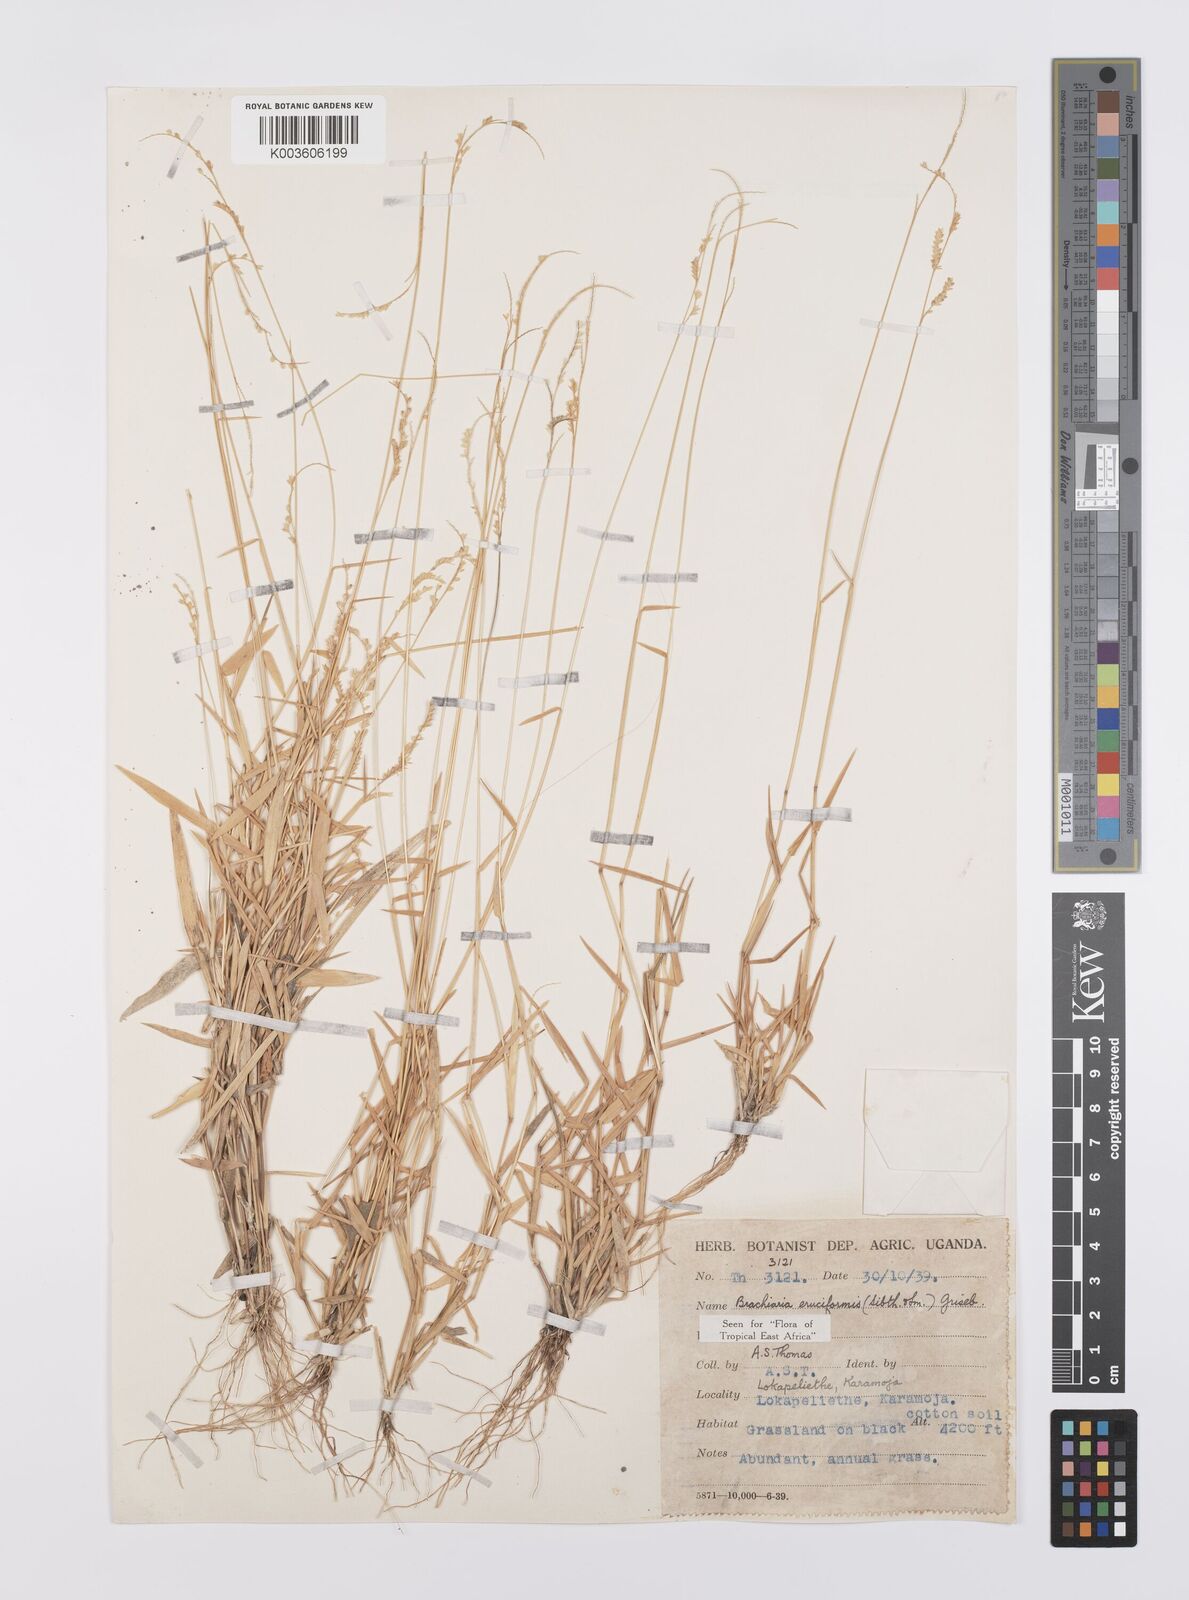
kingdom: Plantae
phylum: Tracheophyta
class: Liliopsida
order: Poales
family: Poaceae
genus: Moorochloa
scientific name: Moorochloa eruciformis
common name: Sweet signalgrass
